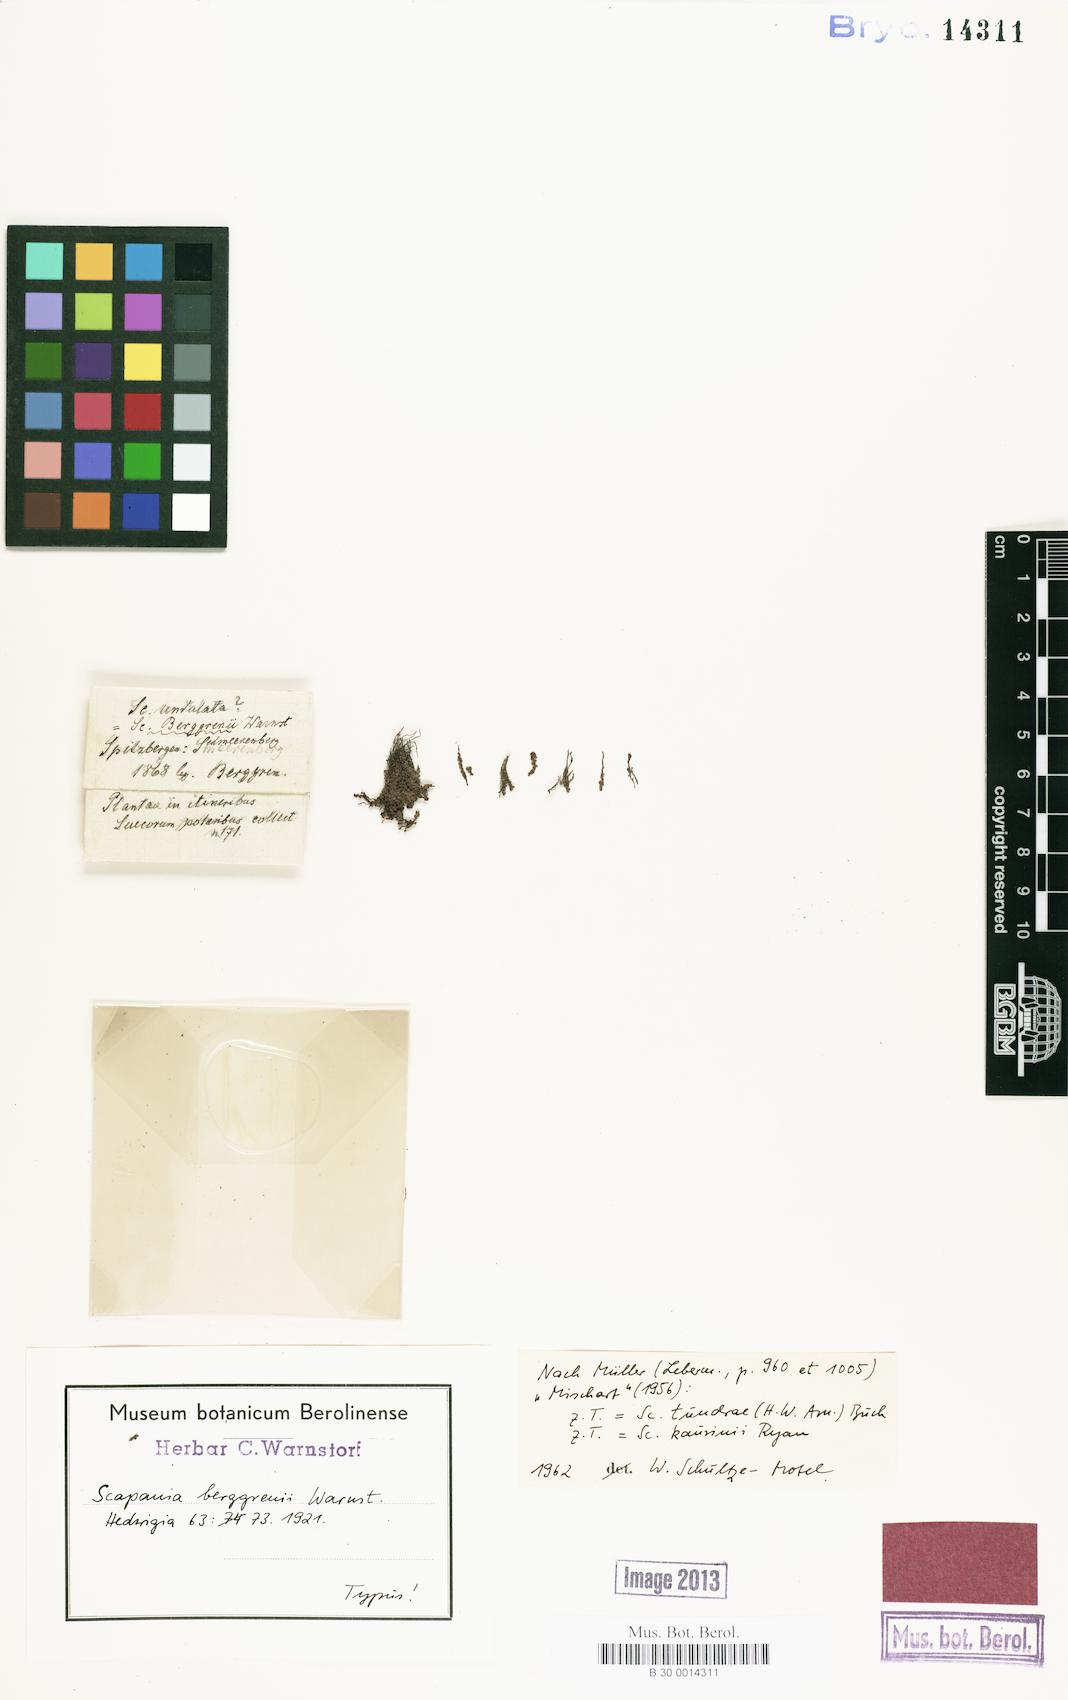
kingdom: Plantae
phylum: Marchantiophyta
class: Jungermanniopsida
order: Jungermanniales
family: Scapaniaceae
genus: Scapania
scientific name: Scapania tundrae
